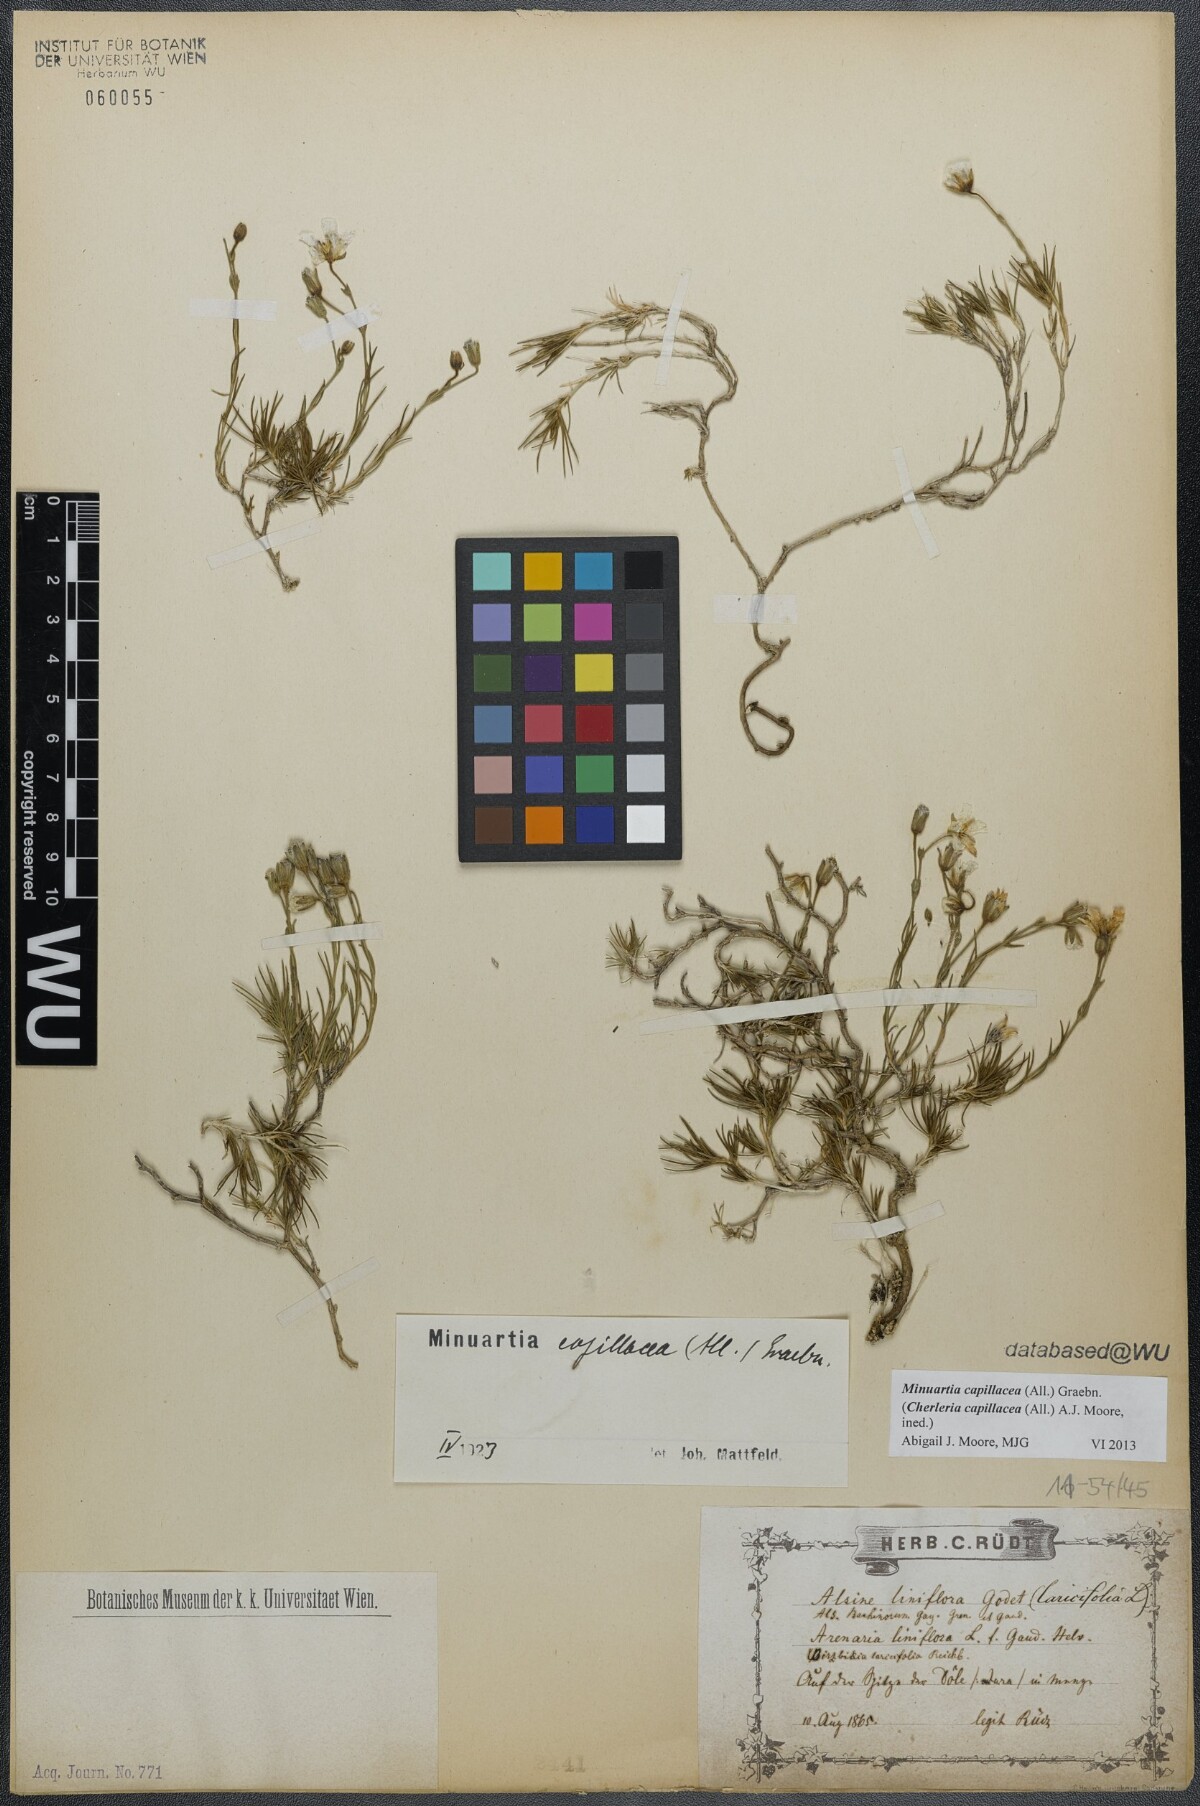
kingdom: Plantae
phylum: Tracheophyta
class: Magnoliopsida
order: Caryophyllales
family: Caryophyllaceae
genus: Cherleria
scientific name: Cherleria capillacea
